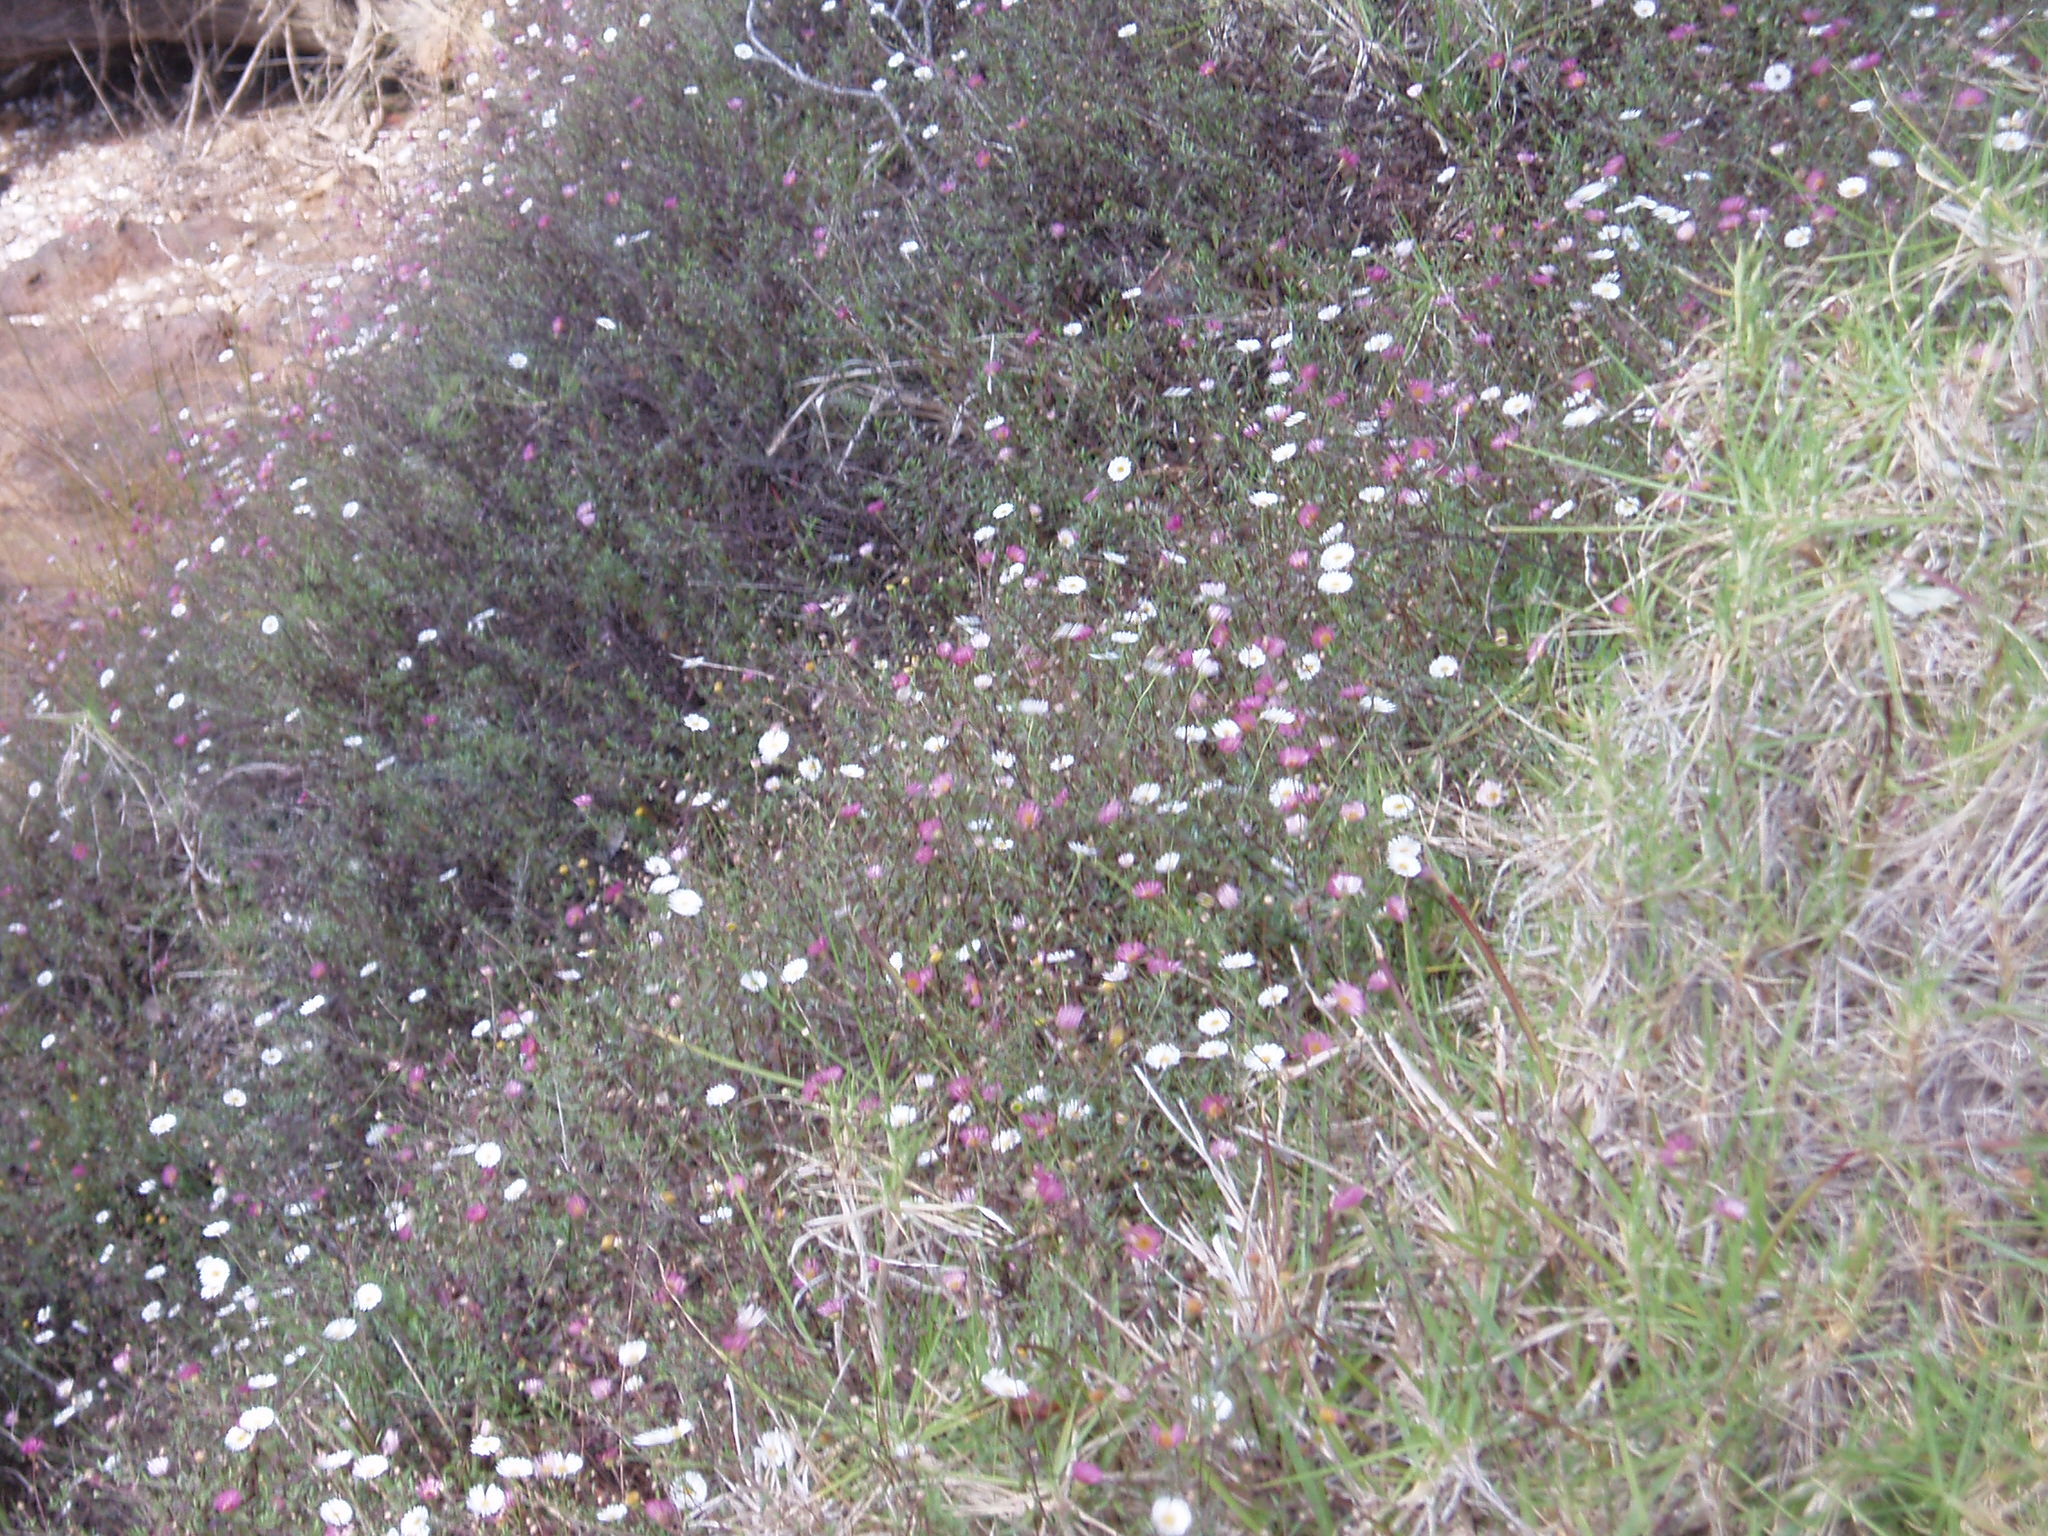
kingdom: Plantae
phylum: Tracheophyta
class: Magnoliopsida
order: Asterales
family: Asteraceae
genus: Erigeron
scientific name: Erigeron karvinskianus
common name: Mexican fleabane
